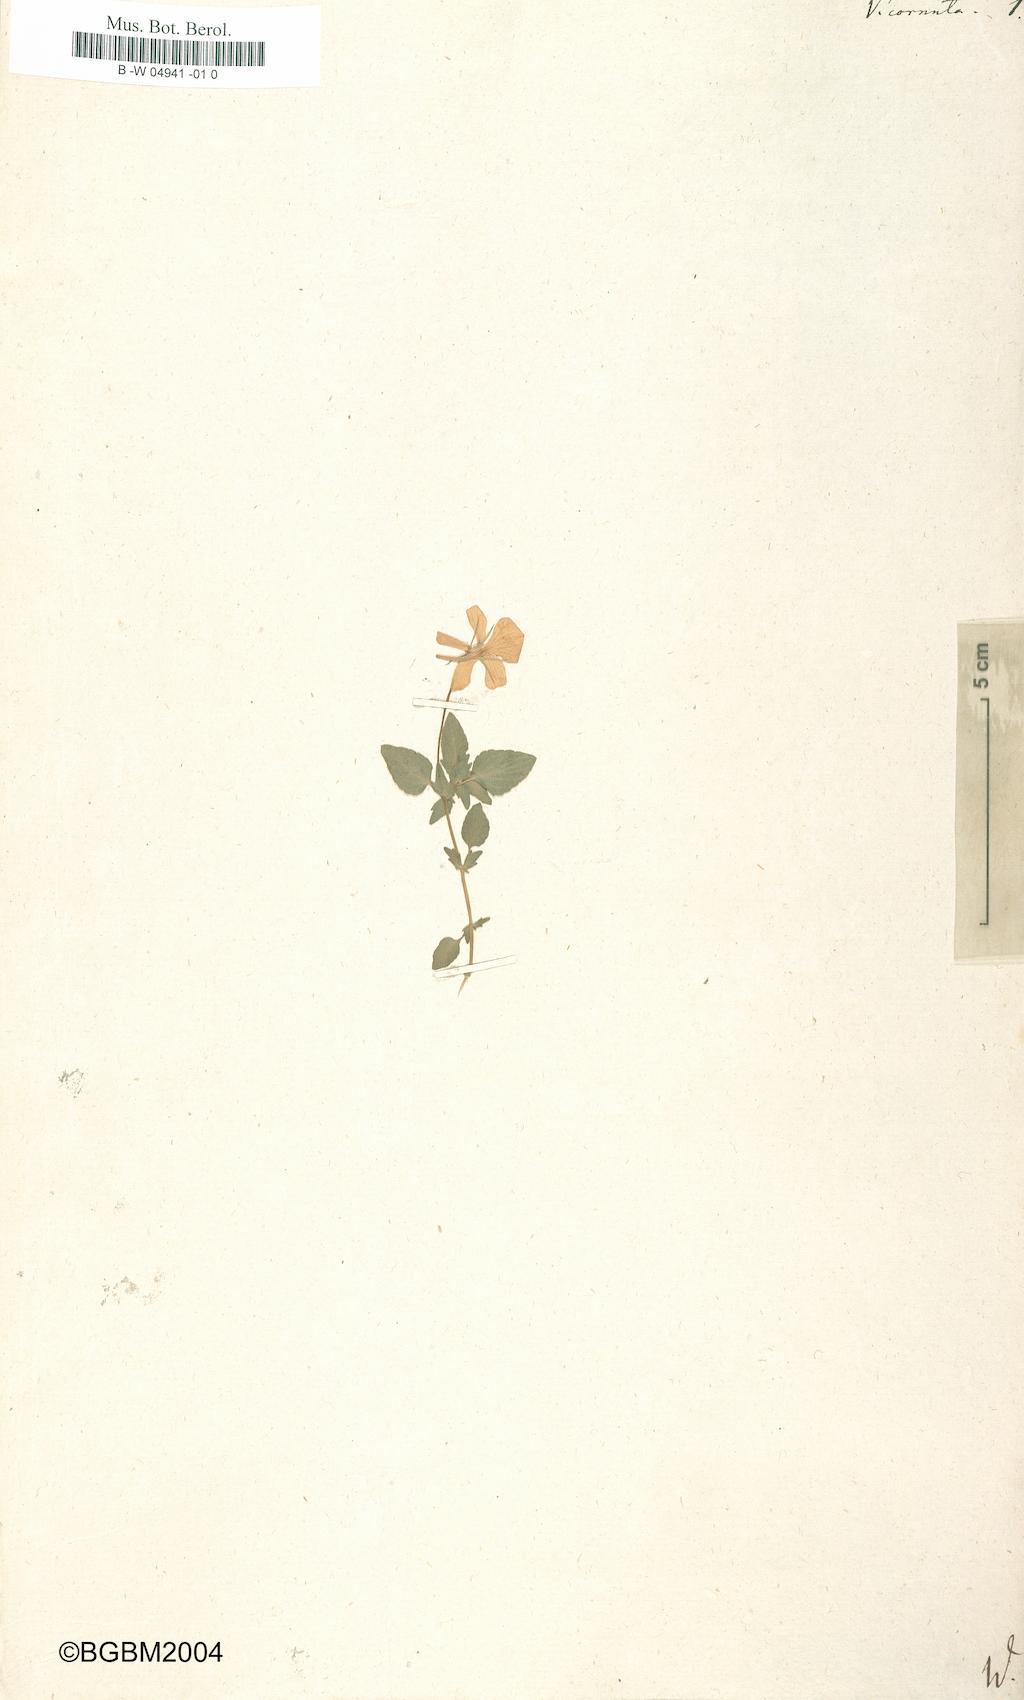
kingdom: Plantae
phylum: Tracheophyta
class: Magnoliopsida
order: Malpighiales
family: Violaceae
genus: Viola
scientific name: Viola cornuta
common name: Horned pansy
